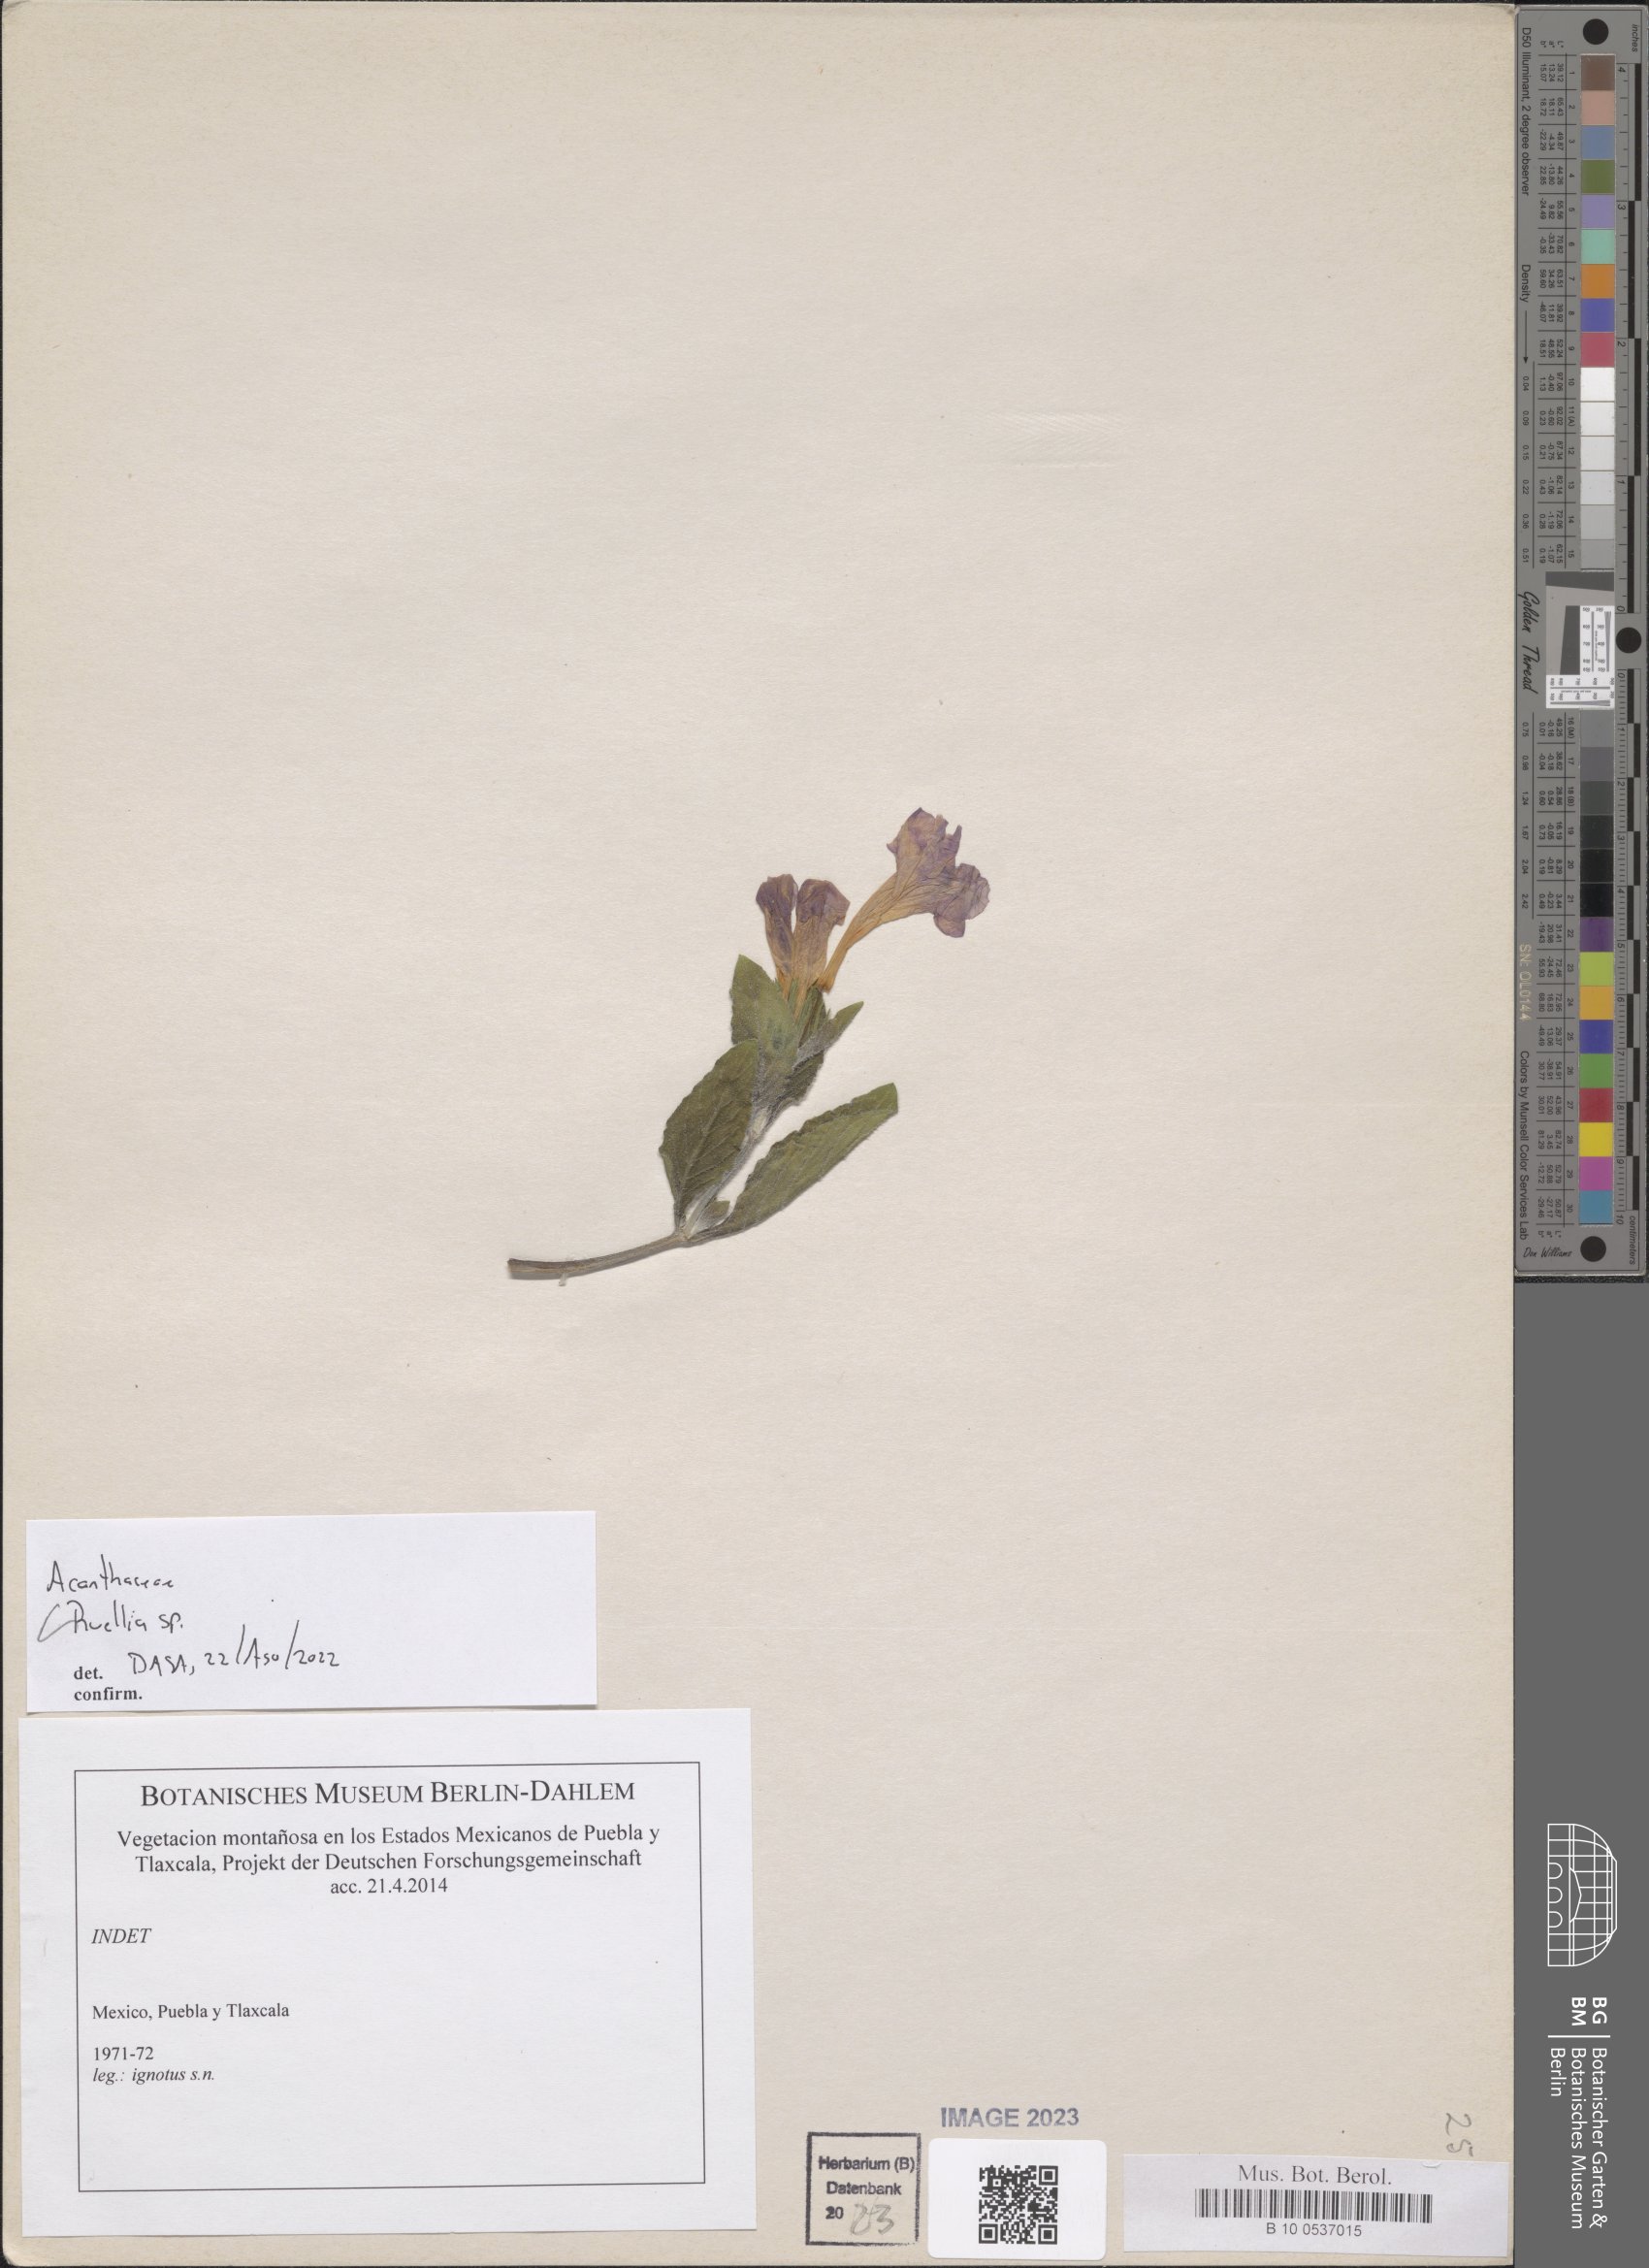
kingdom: Plantae
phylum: Tracheophyta
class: Magnoliopsida
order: Lamiales
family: Acanthaceae
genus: Ruellia
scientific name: Ruellia
